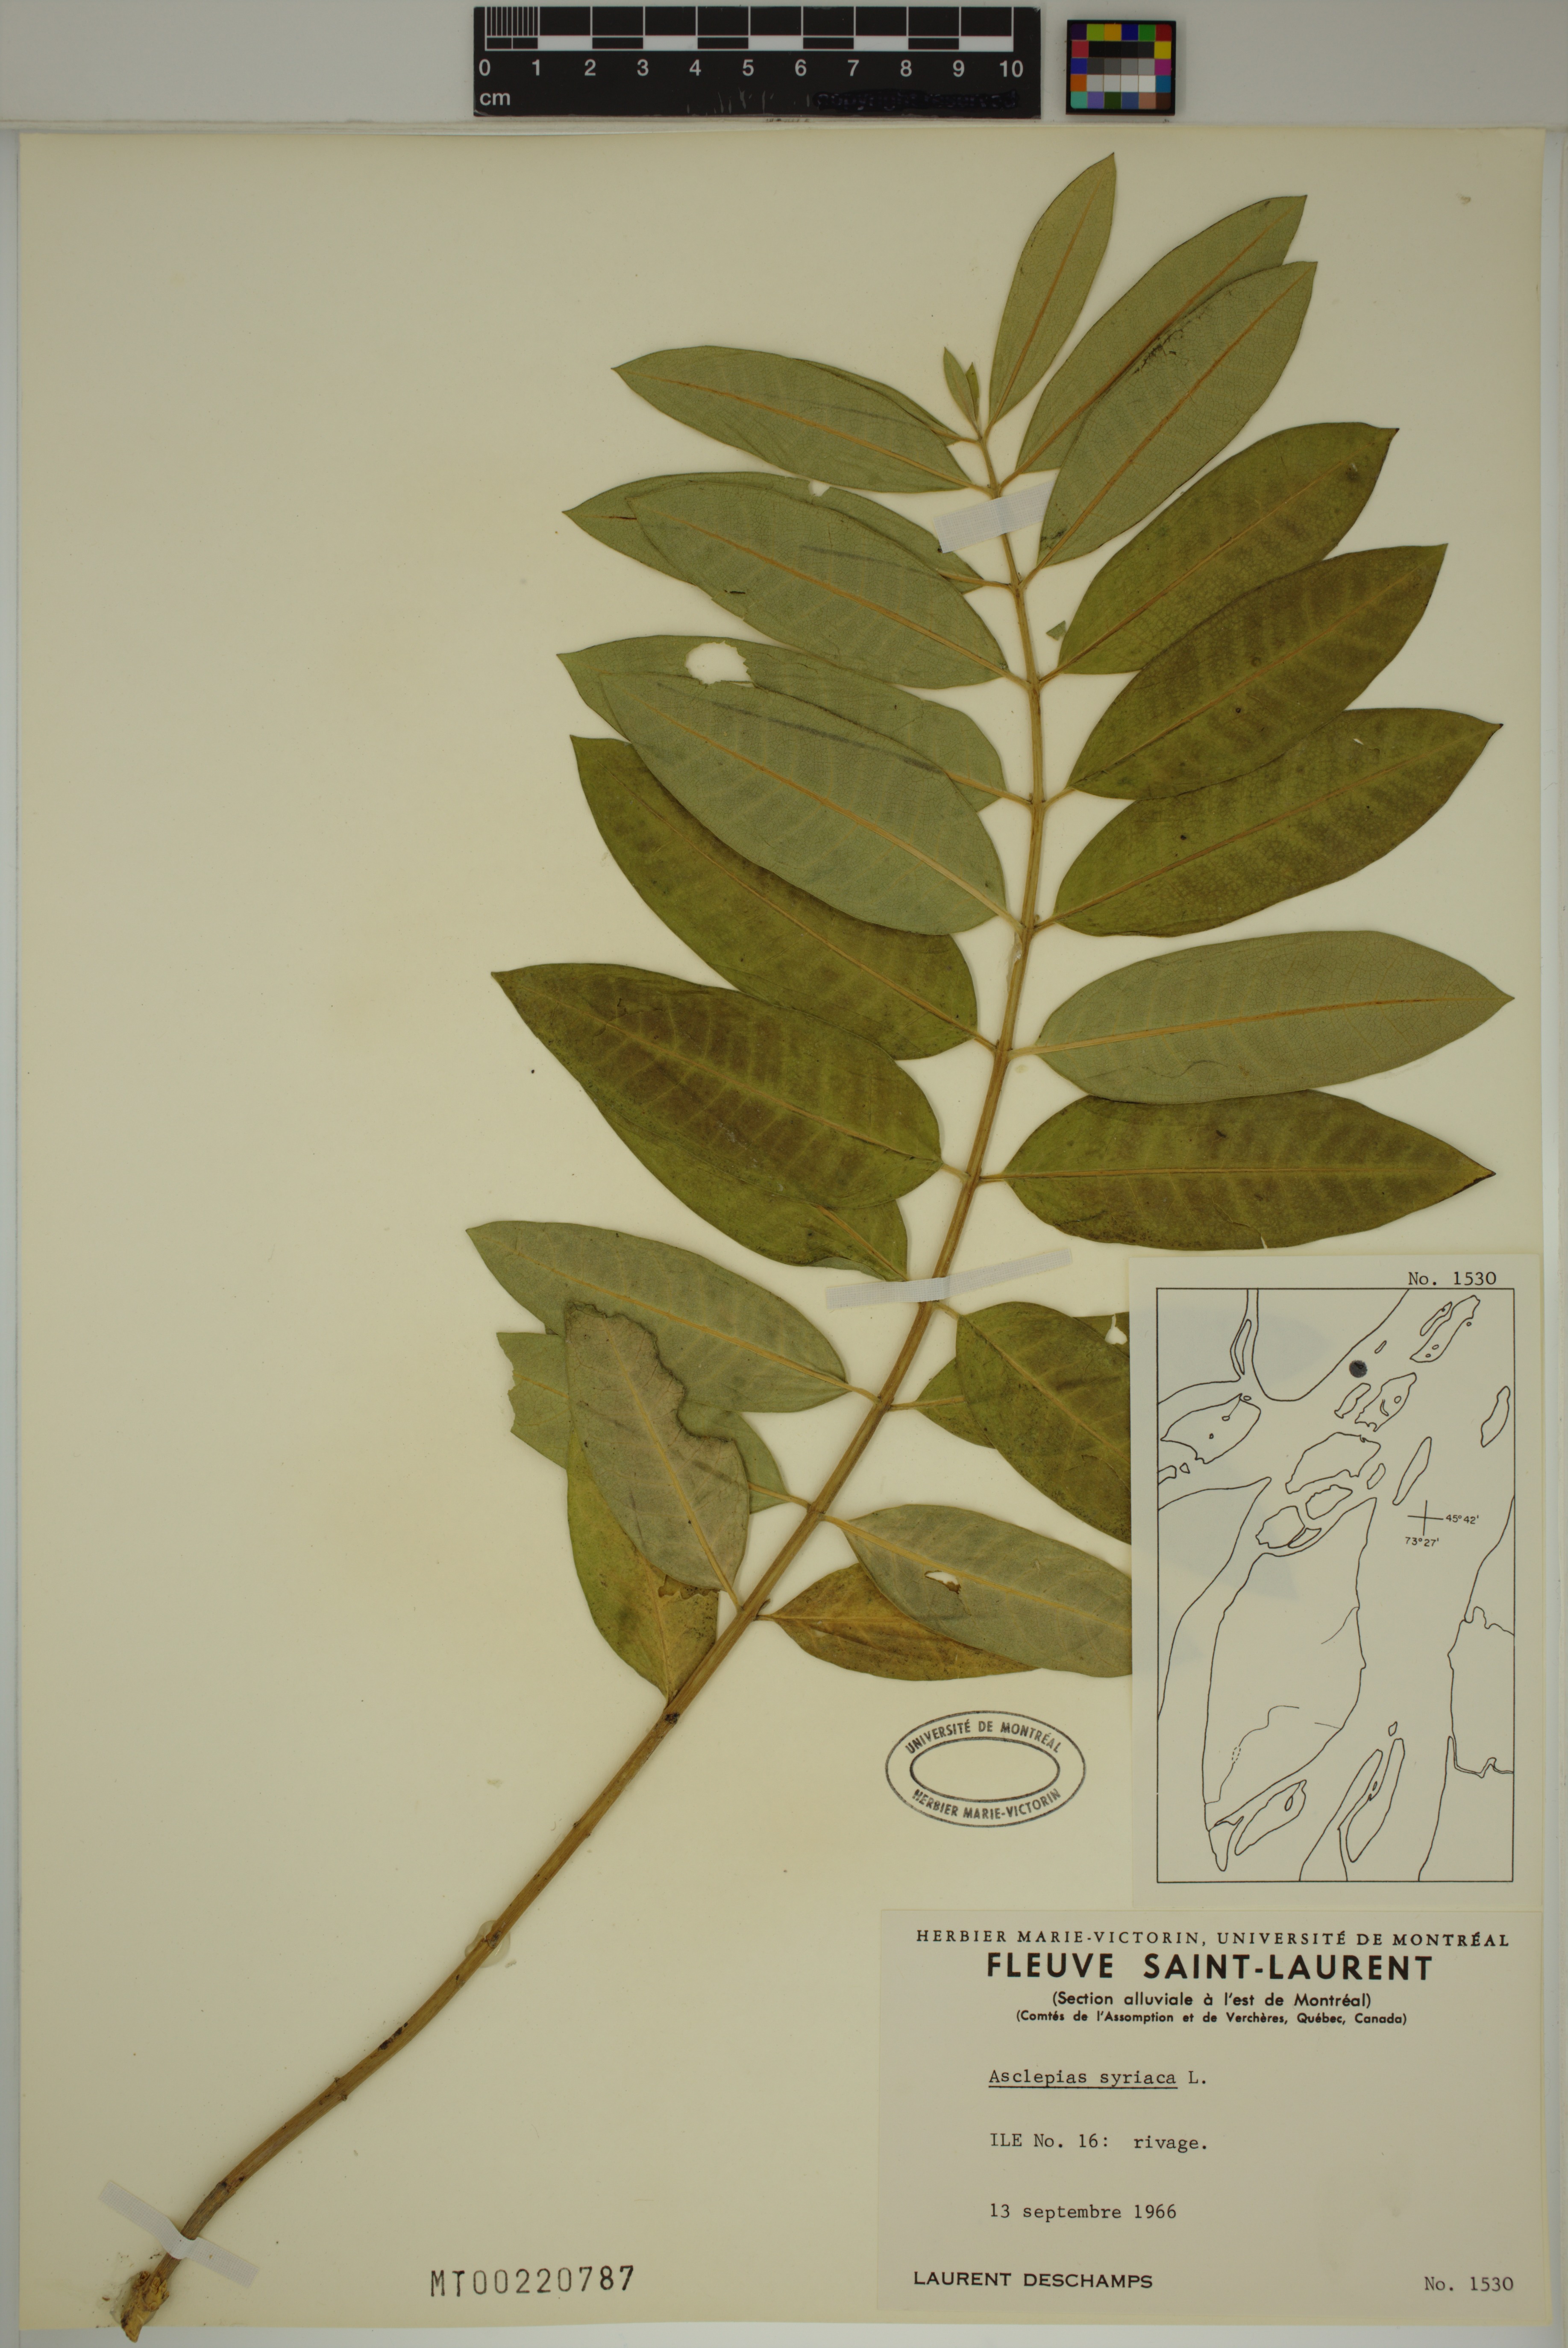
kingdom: Plantae
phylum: Tracheophyta
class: Magnoliopsida
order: Gentianales
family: Apocynaceae
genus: Asclepias
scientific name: Asclepias syriaca
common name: Common milkweed
